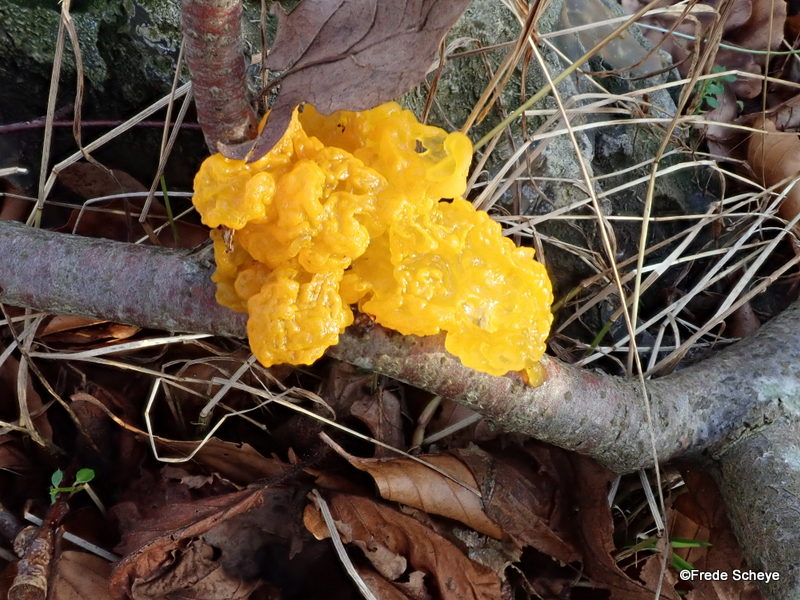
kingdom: Fungi
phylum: Basidiomycota
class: Tremellomycetes
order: Tremellales
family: Tremellaceae
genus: Tremella
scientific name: Tremella mesenterica
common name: gul bævresvamp
